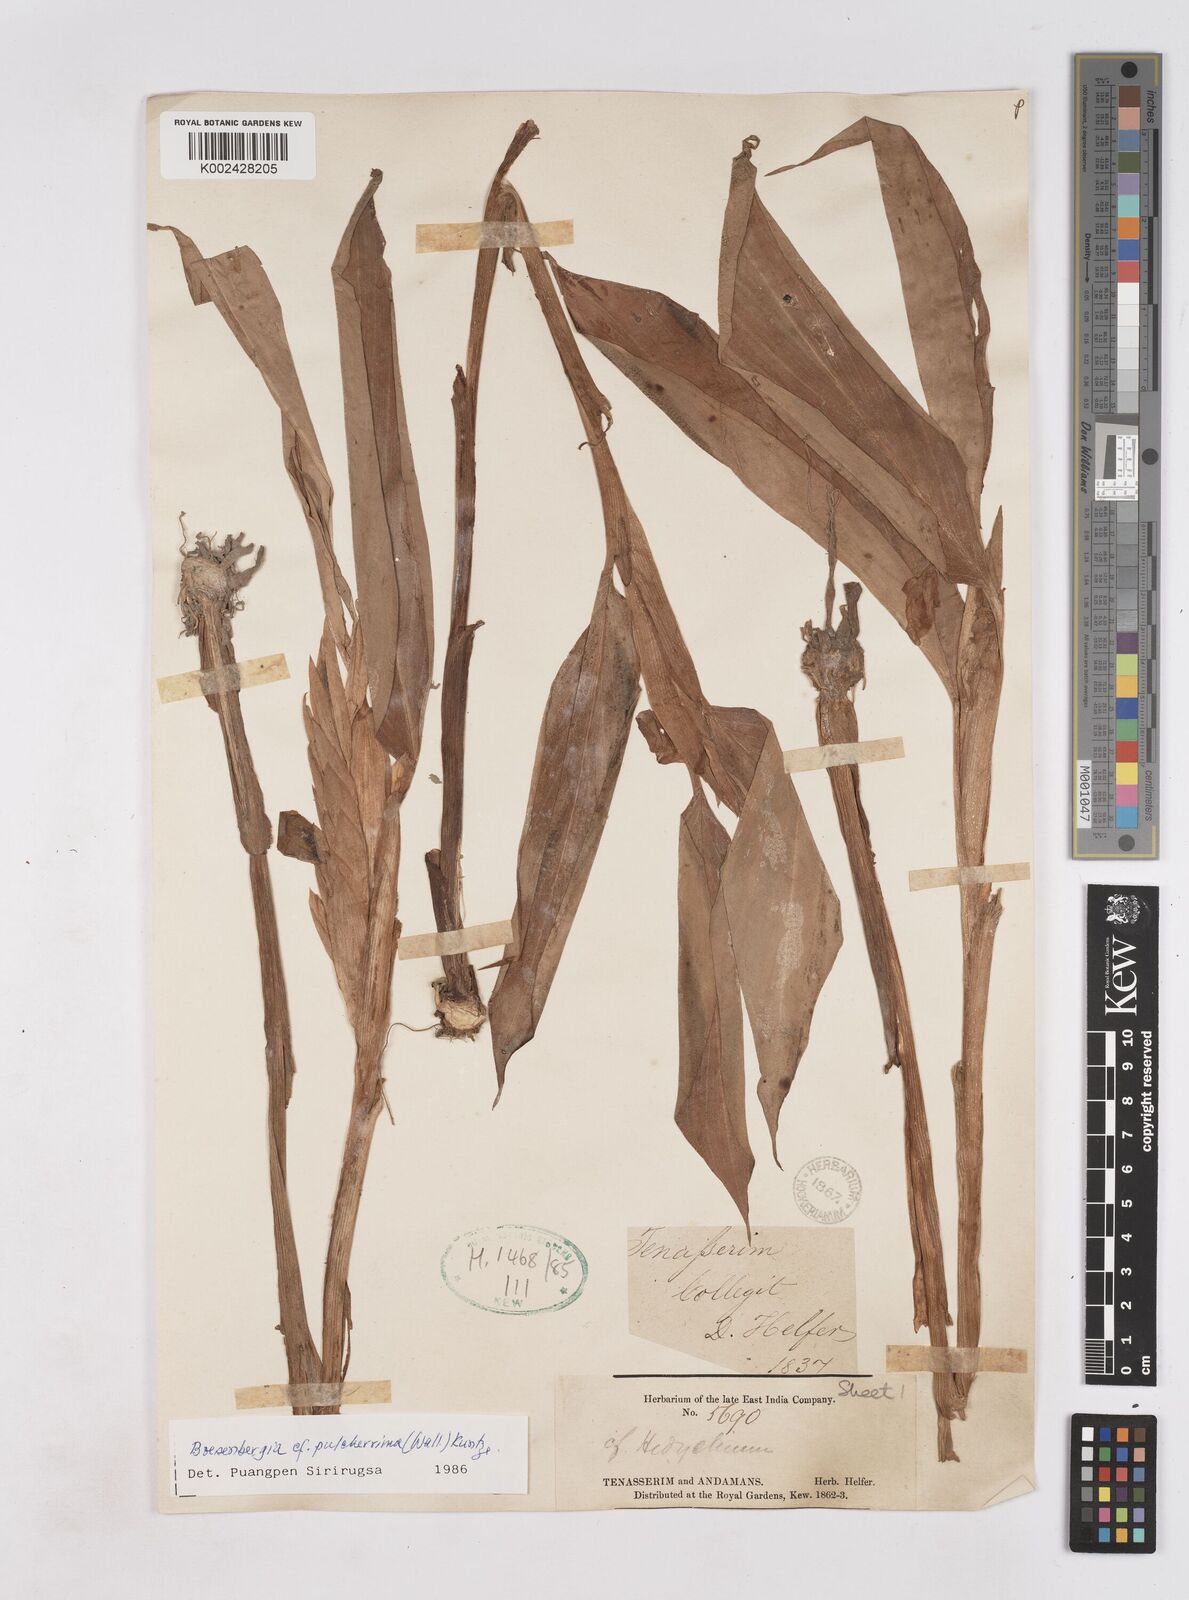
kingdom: Plantae
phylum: Tracheophyta
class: Liliopsida
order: Zingiberales
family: Zingiberaceae
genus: Boesenbergia
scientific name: Boesenbergia pulcherrima
